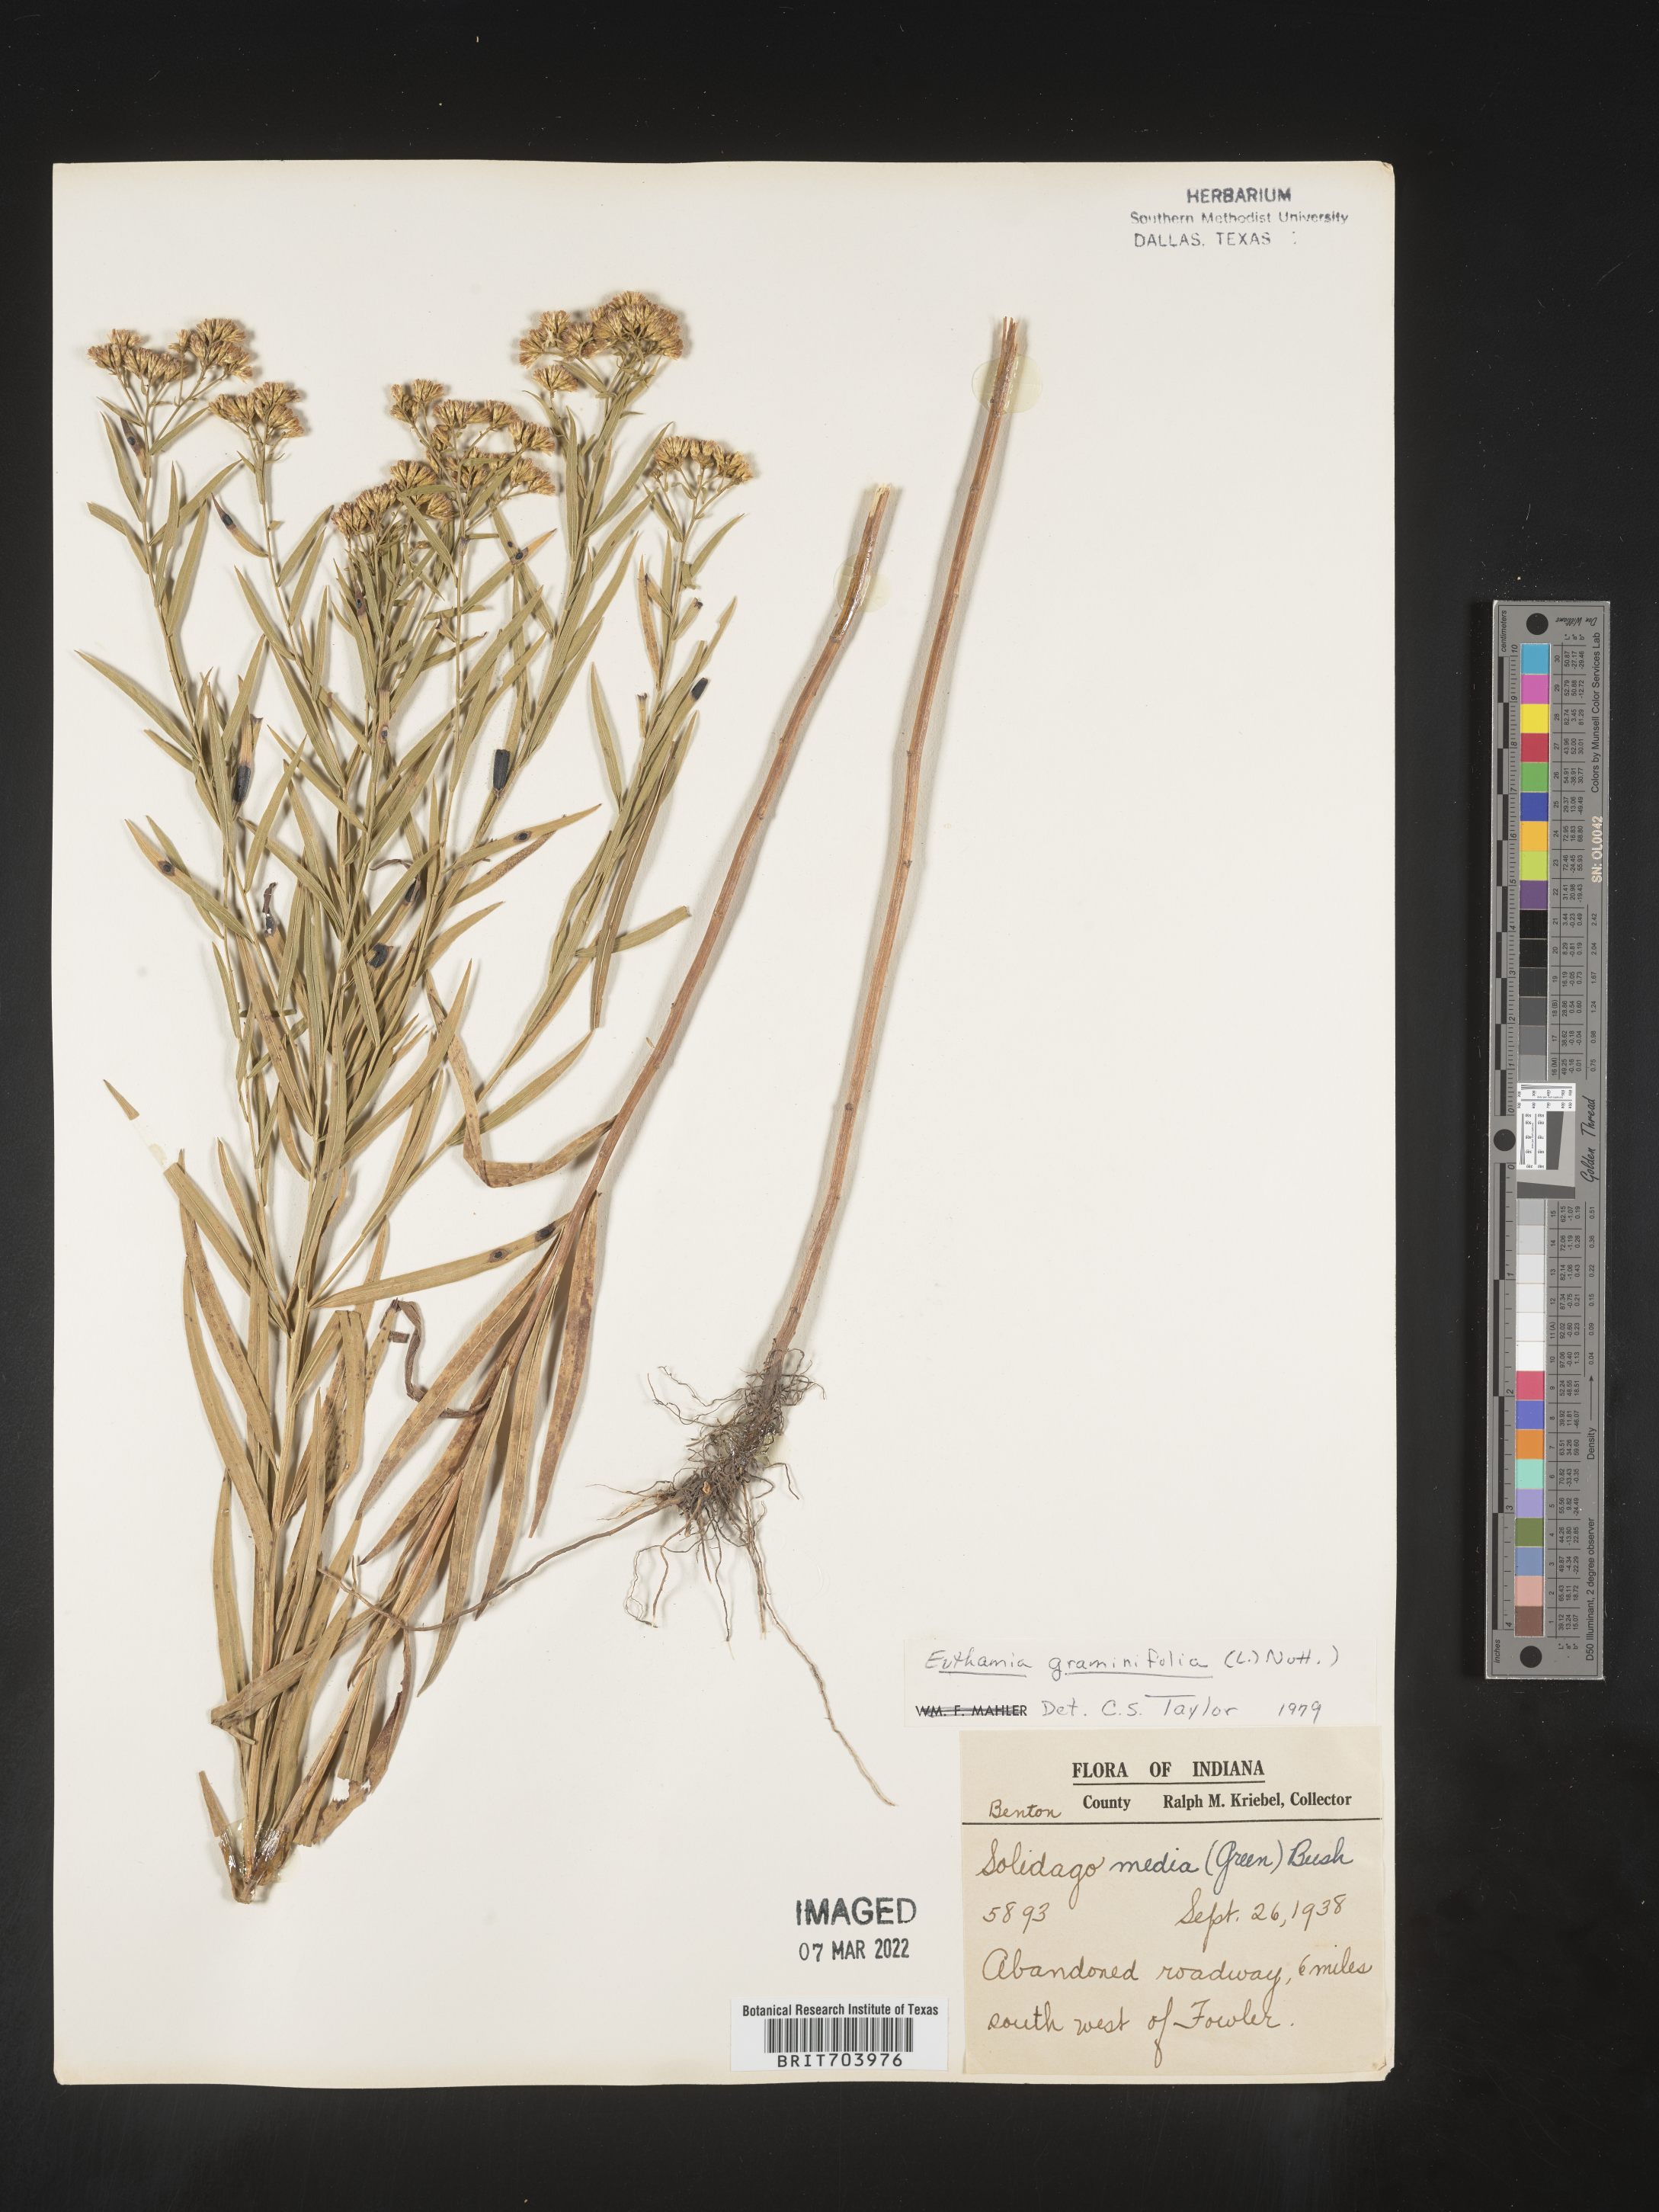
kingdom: Plantae
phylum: Tracheophyta
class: Magnoliopsida
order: Asterales
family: Asteraceae
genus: Euthamia
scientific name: Euthamia graminifolia
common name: Common goldentop
